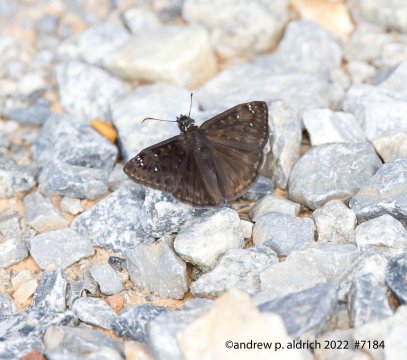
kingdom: Animalia
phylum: Arthropoda
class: Insecta
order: Lepidoptera
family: Hesperiidae
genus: Gesta
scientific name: Gesta
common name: Horace's Duskywing
